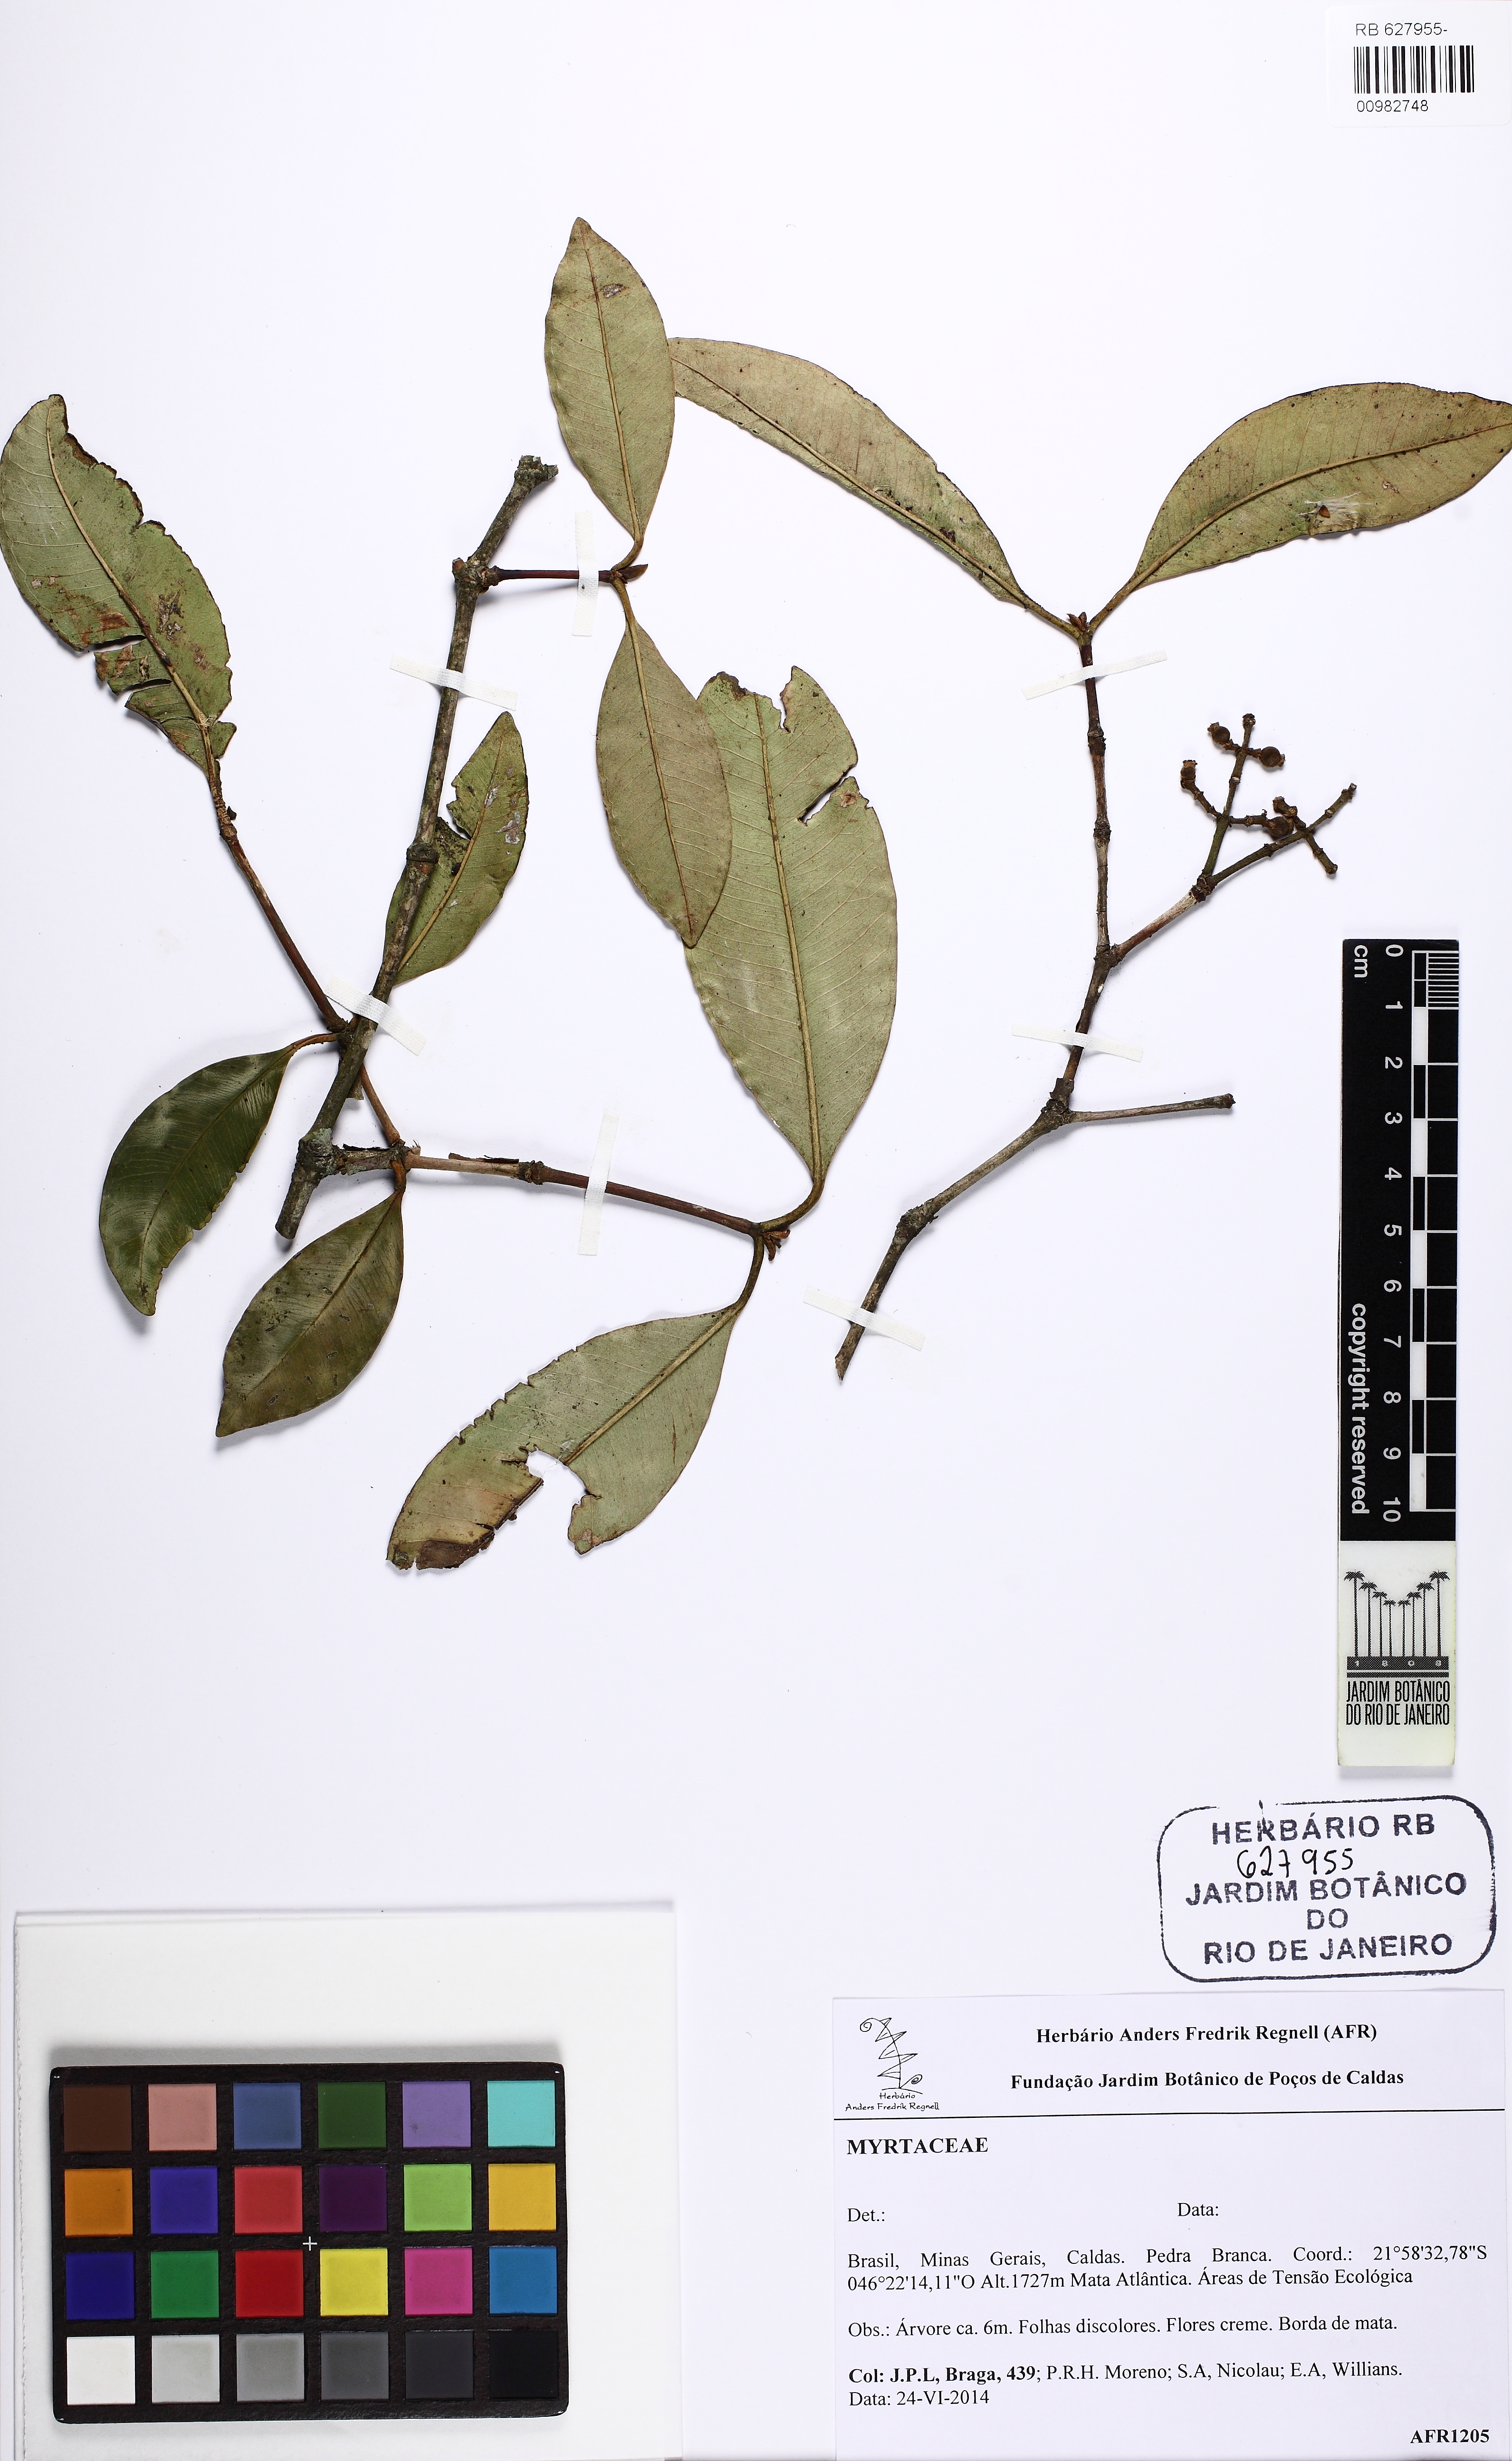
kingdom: Plantae
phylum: Tracheophyta
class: Magnoliopsida
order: Myrtales
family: Myrtaceae
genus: Calyptranthes
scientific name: Calyptranthes widgreniana
